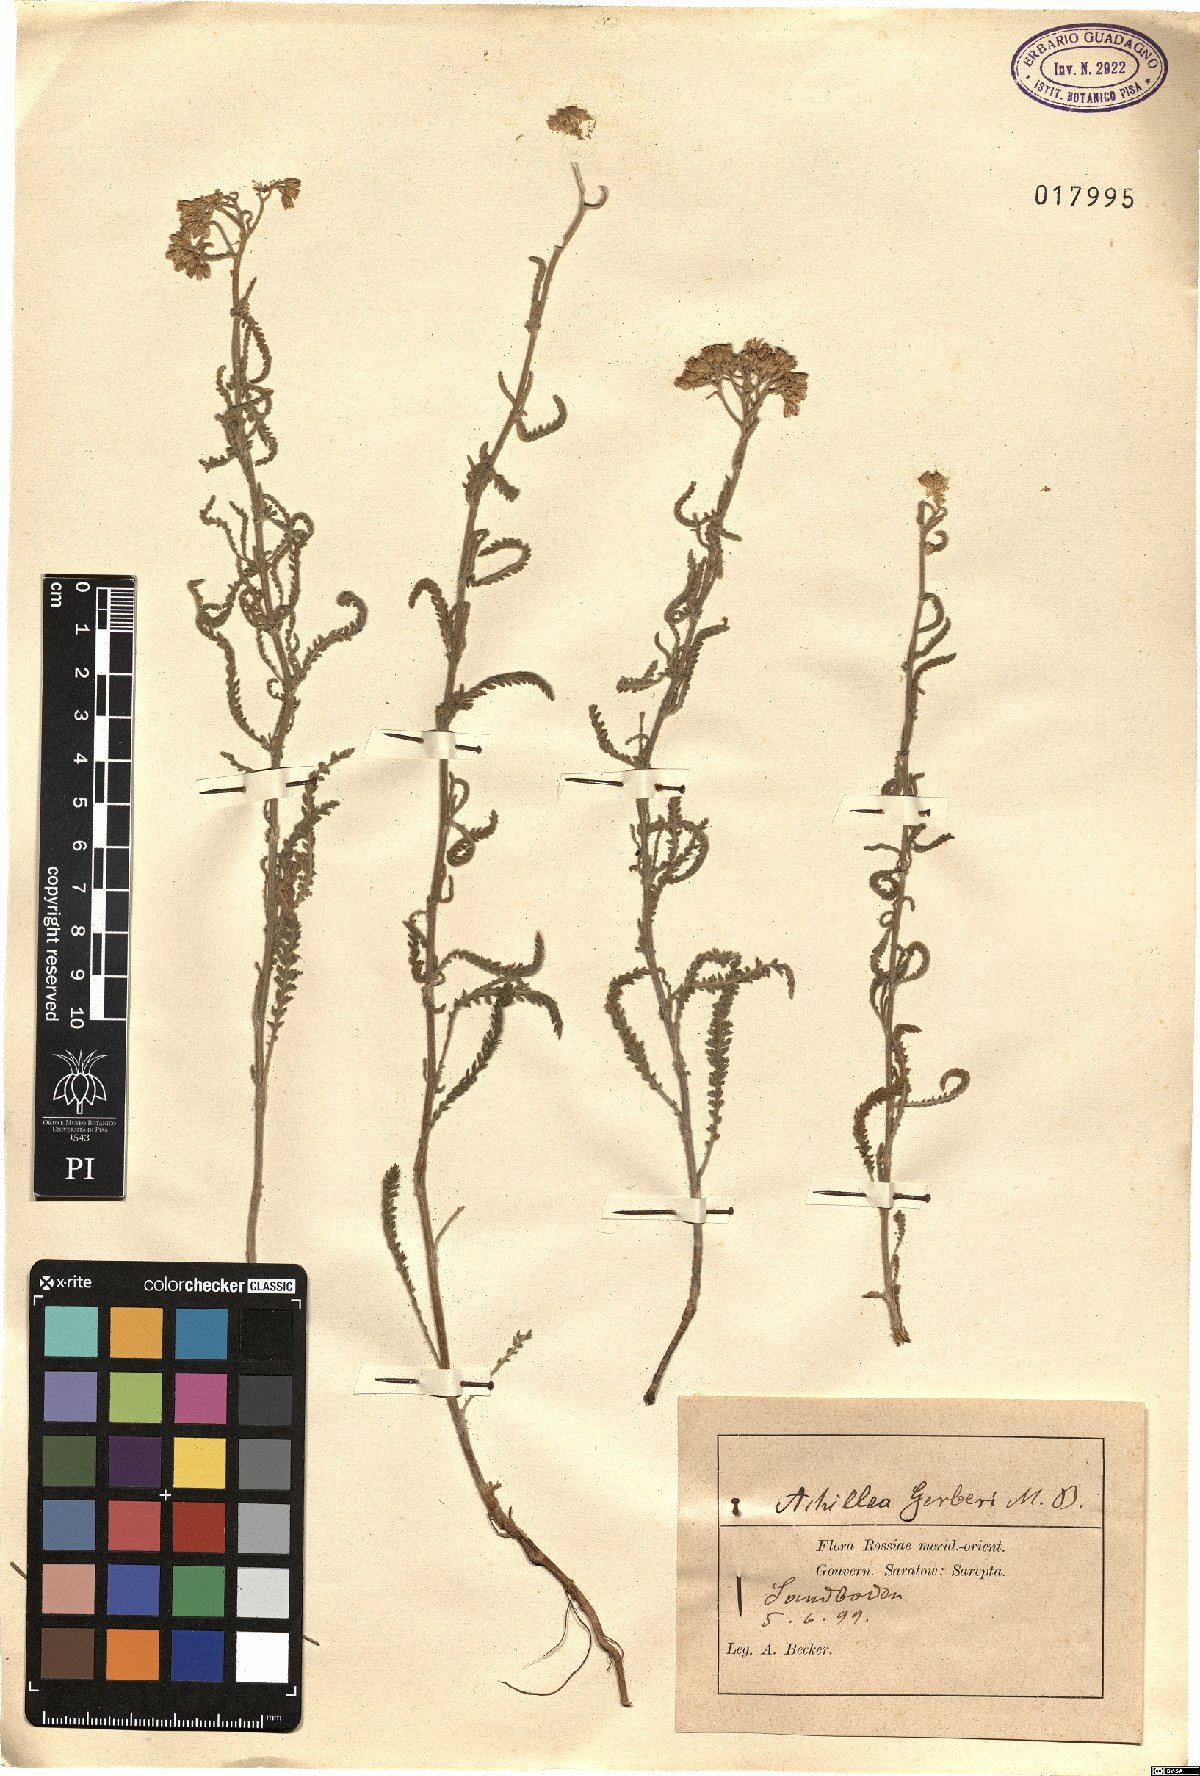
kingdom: Plantae
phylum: Tracheophyta
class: Magnoliopsida
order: Asterales
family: Asteraceae
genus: Achillea
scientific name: Achillea micrantha
